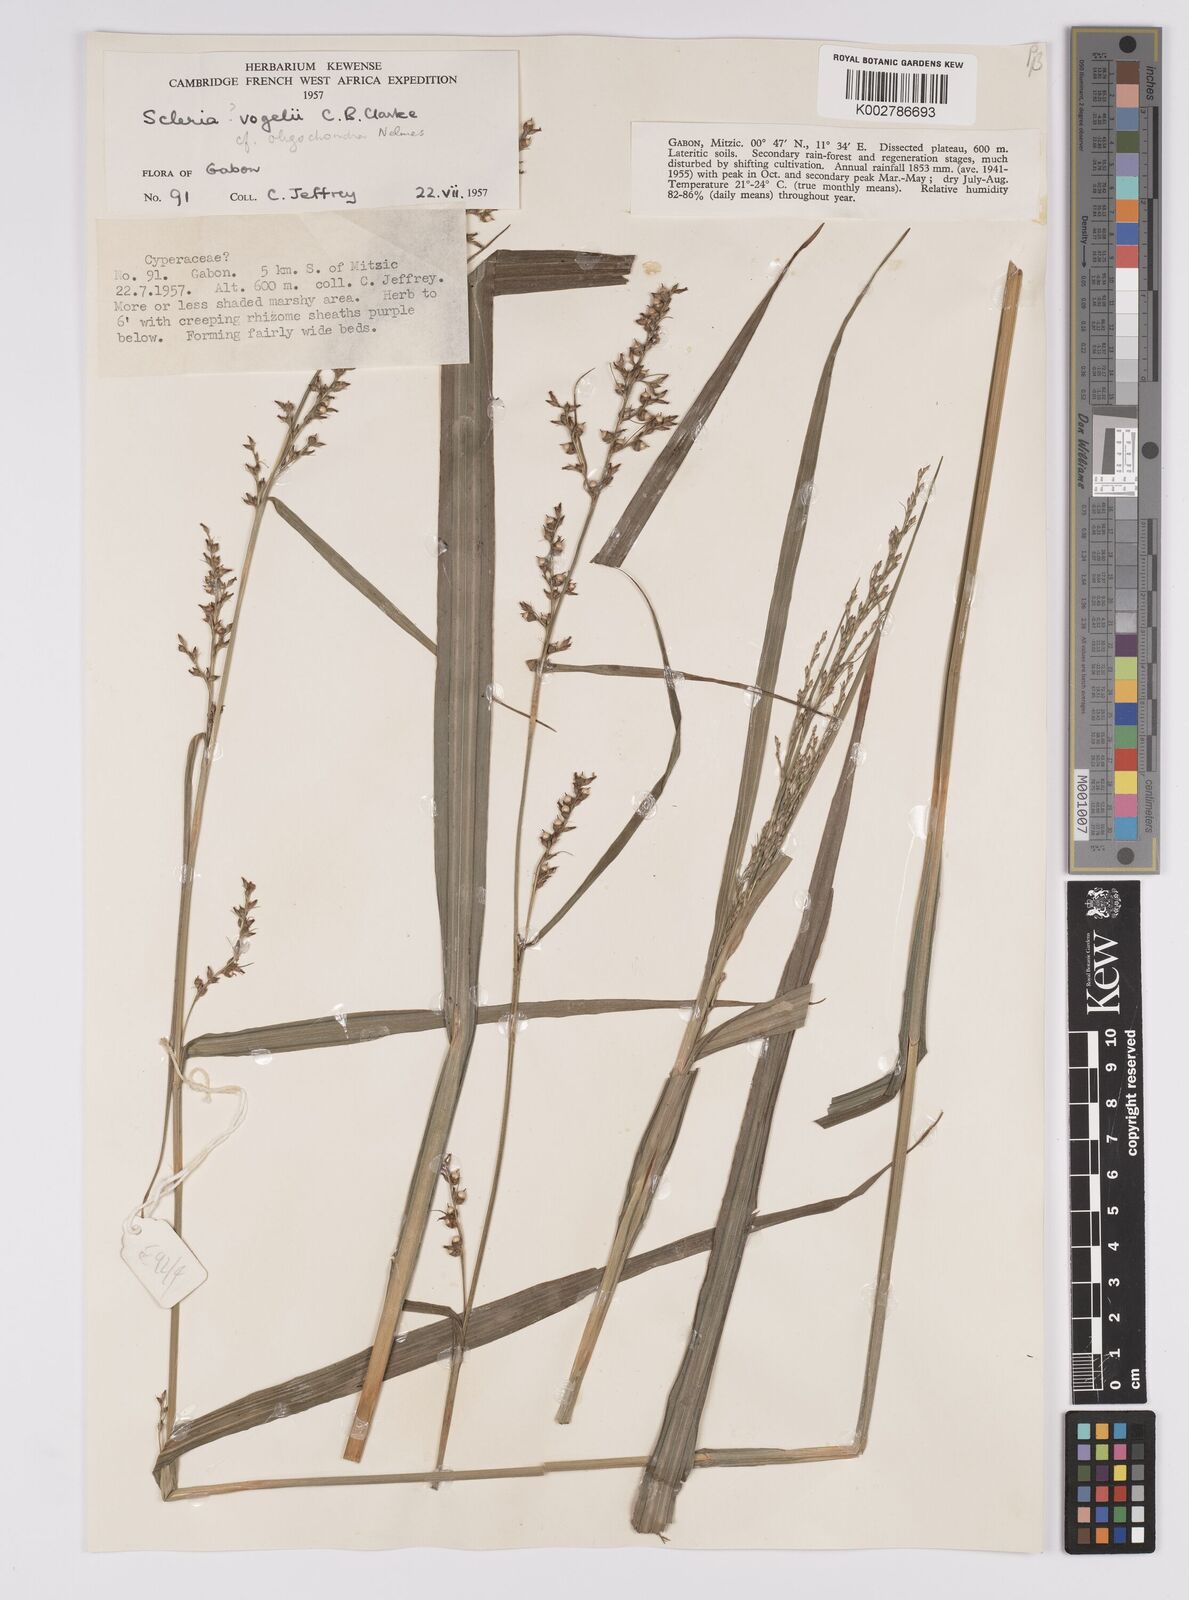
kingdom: Plantae
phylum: Tracheophyta
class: Liliopsida
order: Poales
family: Cyperaceae
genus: Scleria
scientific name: Scleria vogelii
